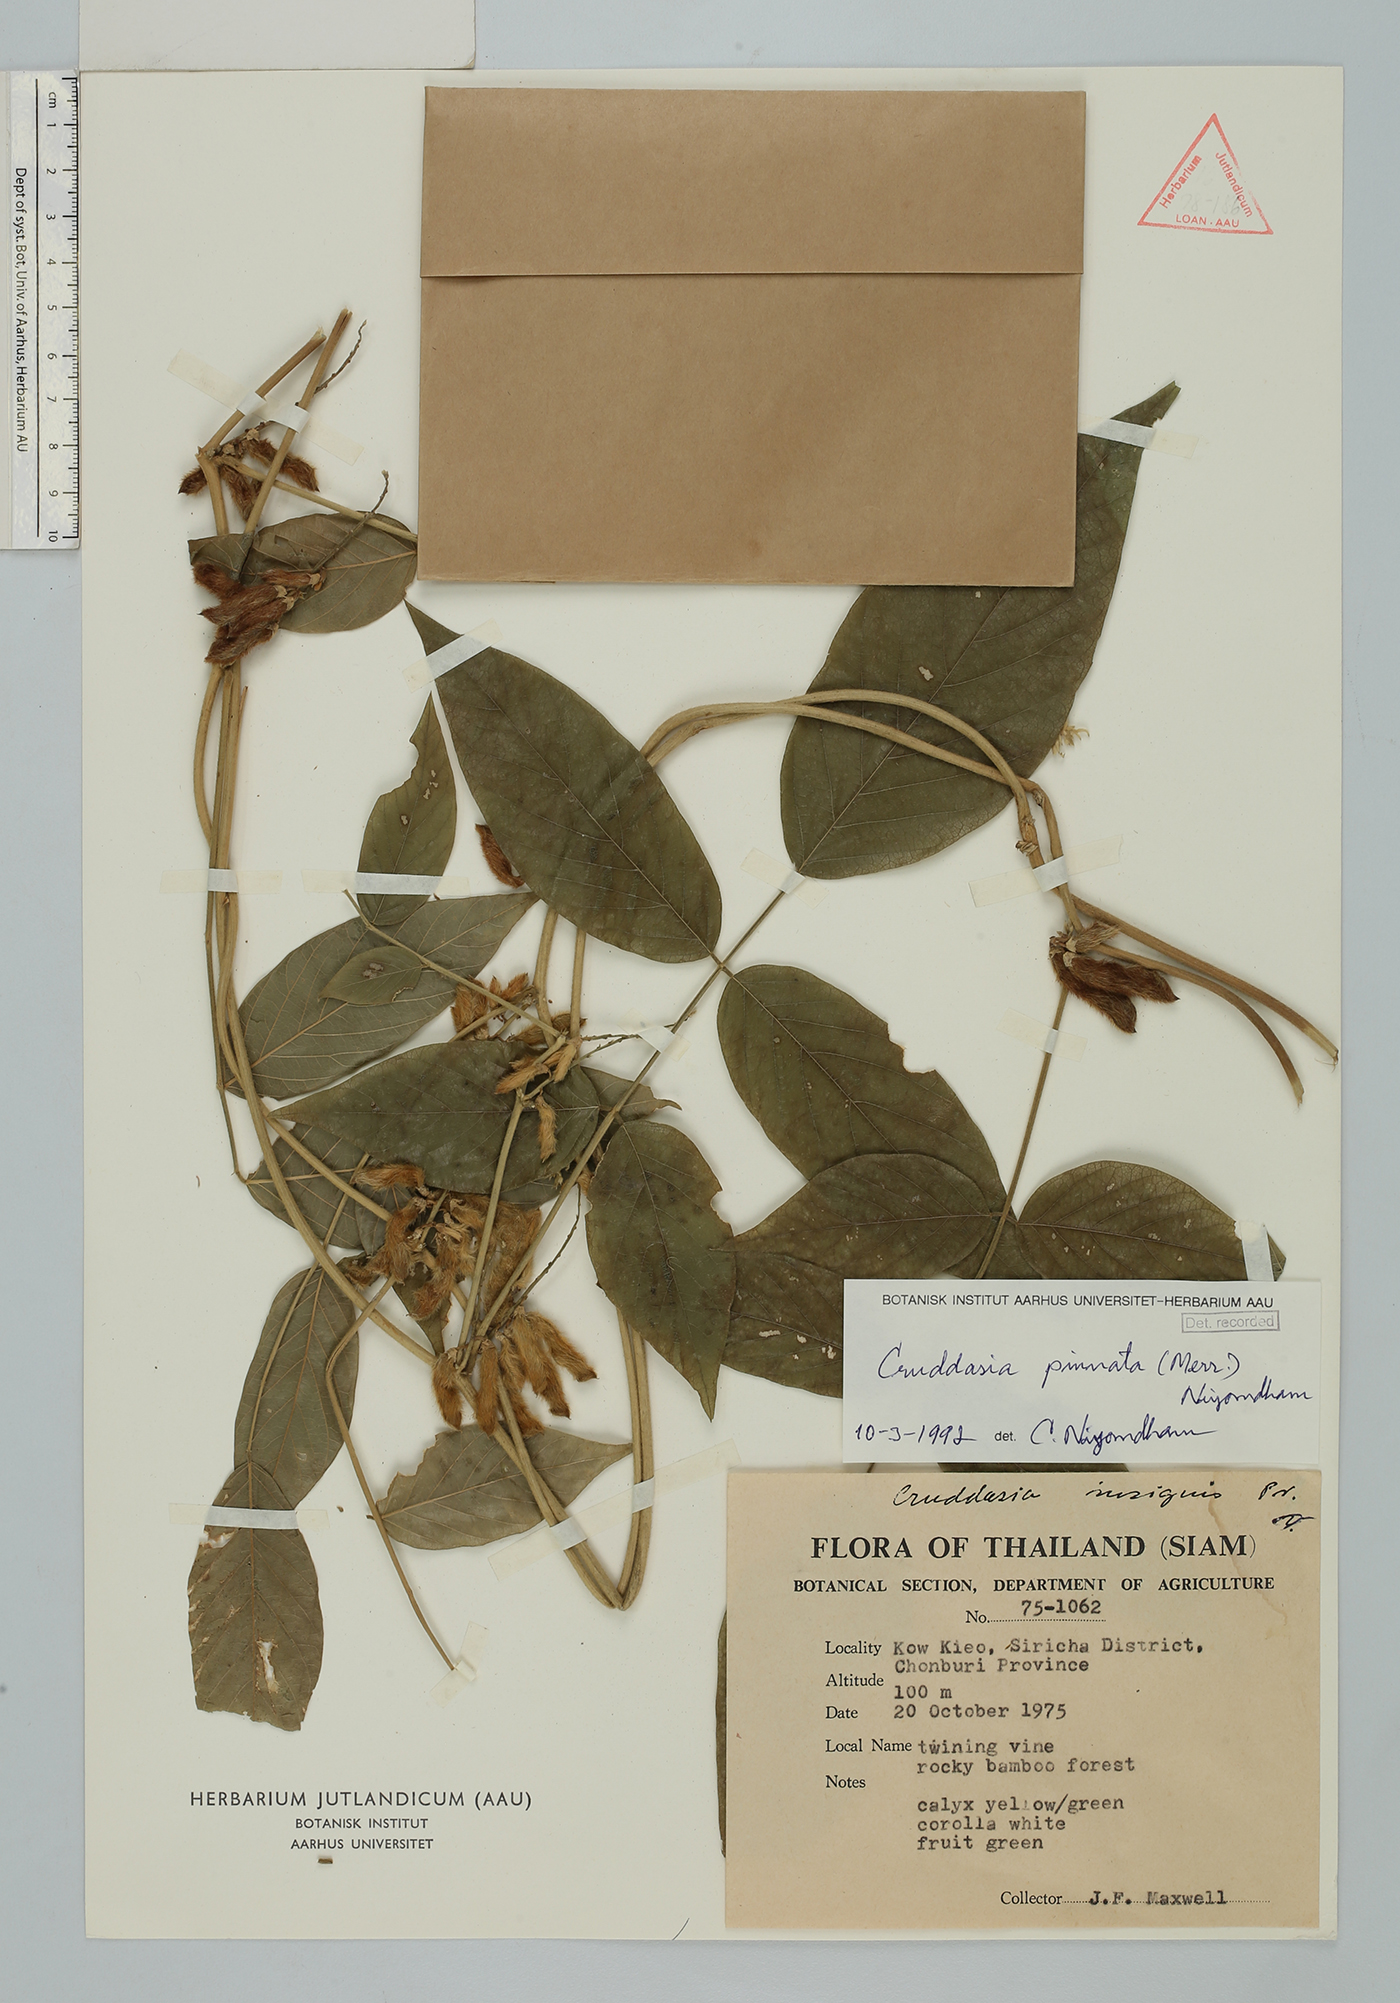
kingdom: Plantae
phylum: Tracheophyta
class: Magnoliopsida
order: Fabales
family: Fabaceae
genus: Cruddasia
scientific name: Cruddasia pinnata
